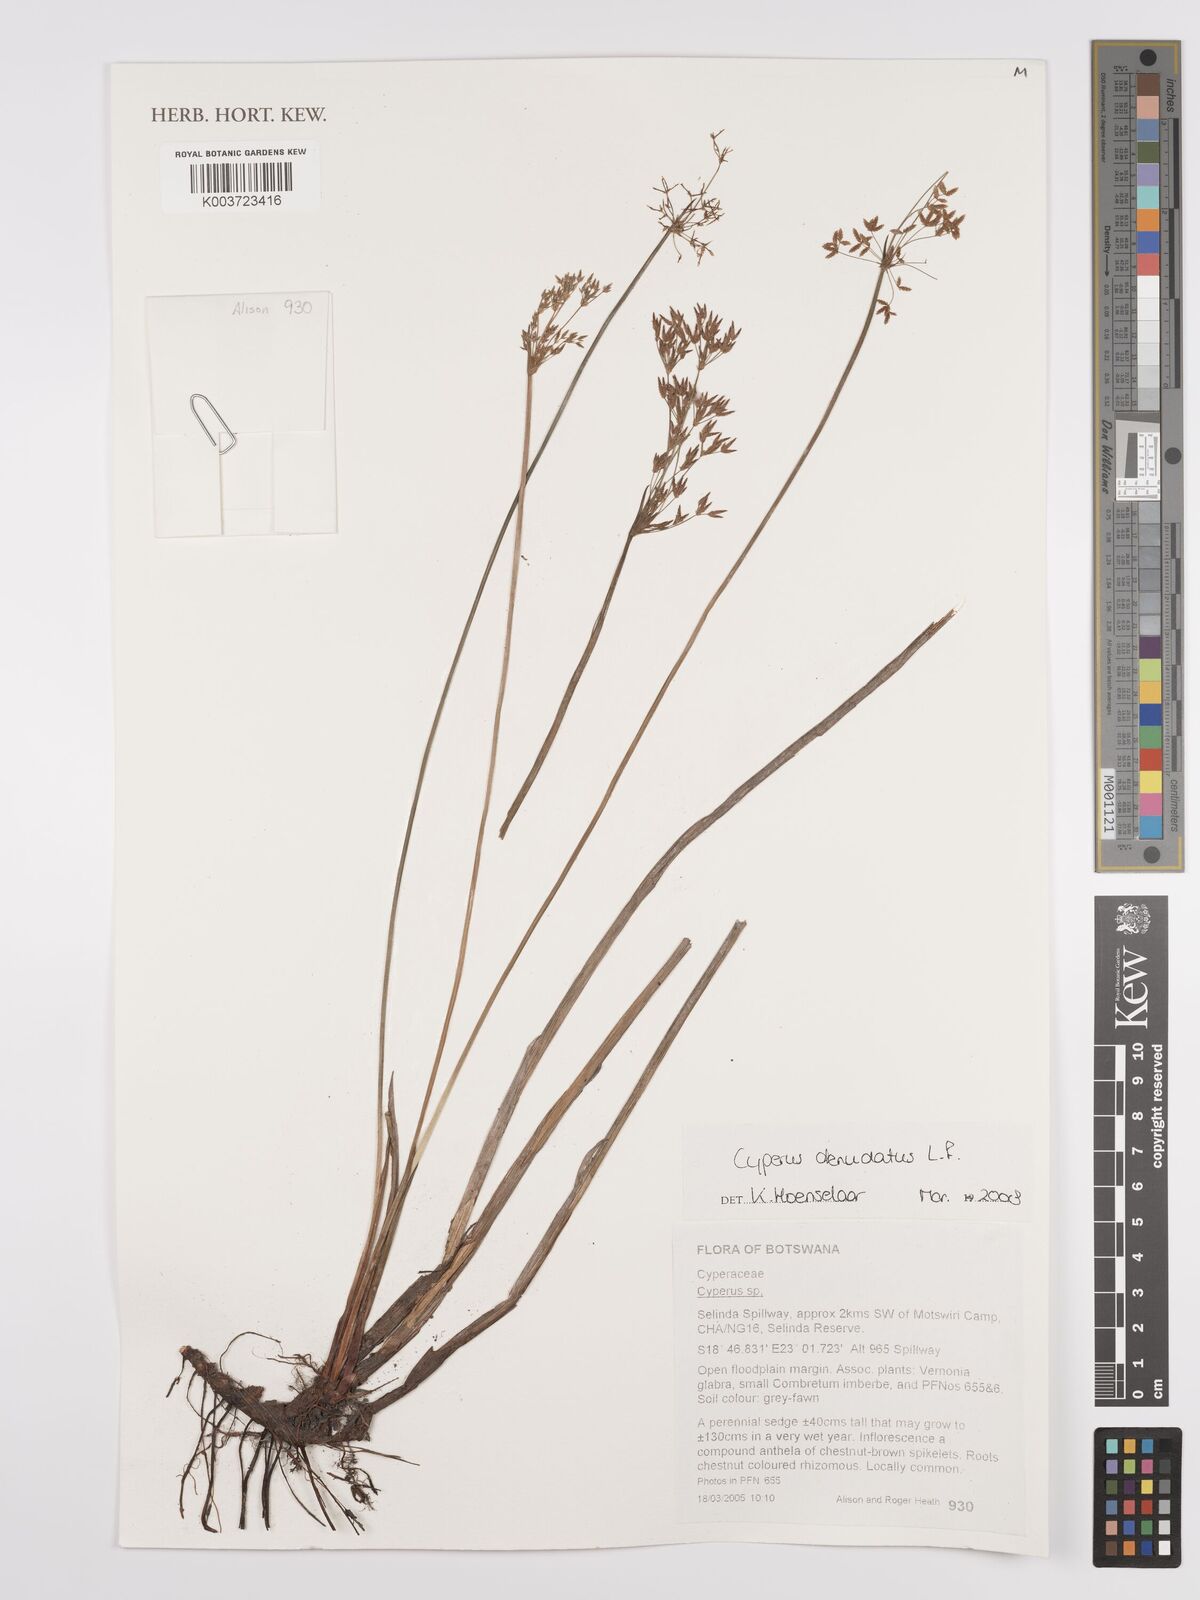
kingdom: Plantae
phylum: Tracheophyta
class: Liliopsida
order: Poales
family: Cyperaceae
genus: Cyperus
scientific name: Cyperus denudatus
